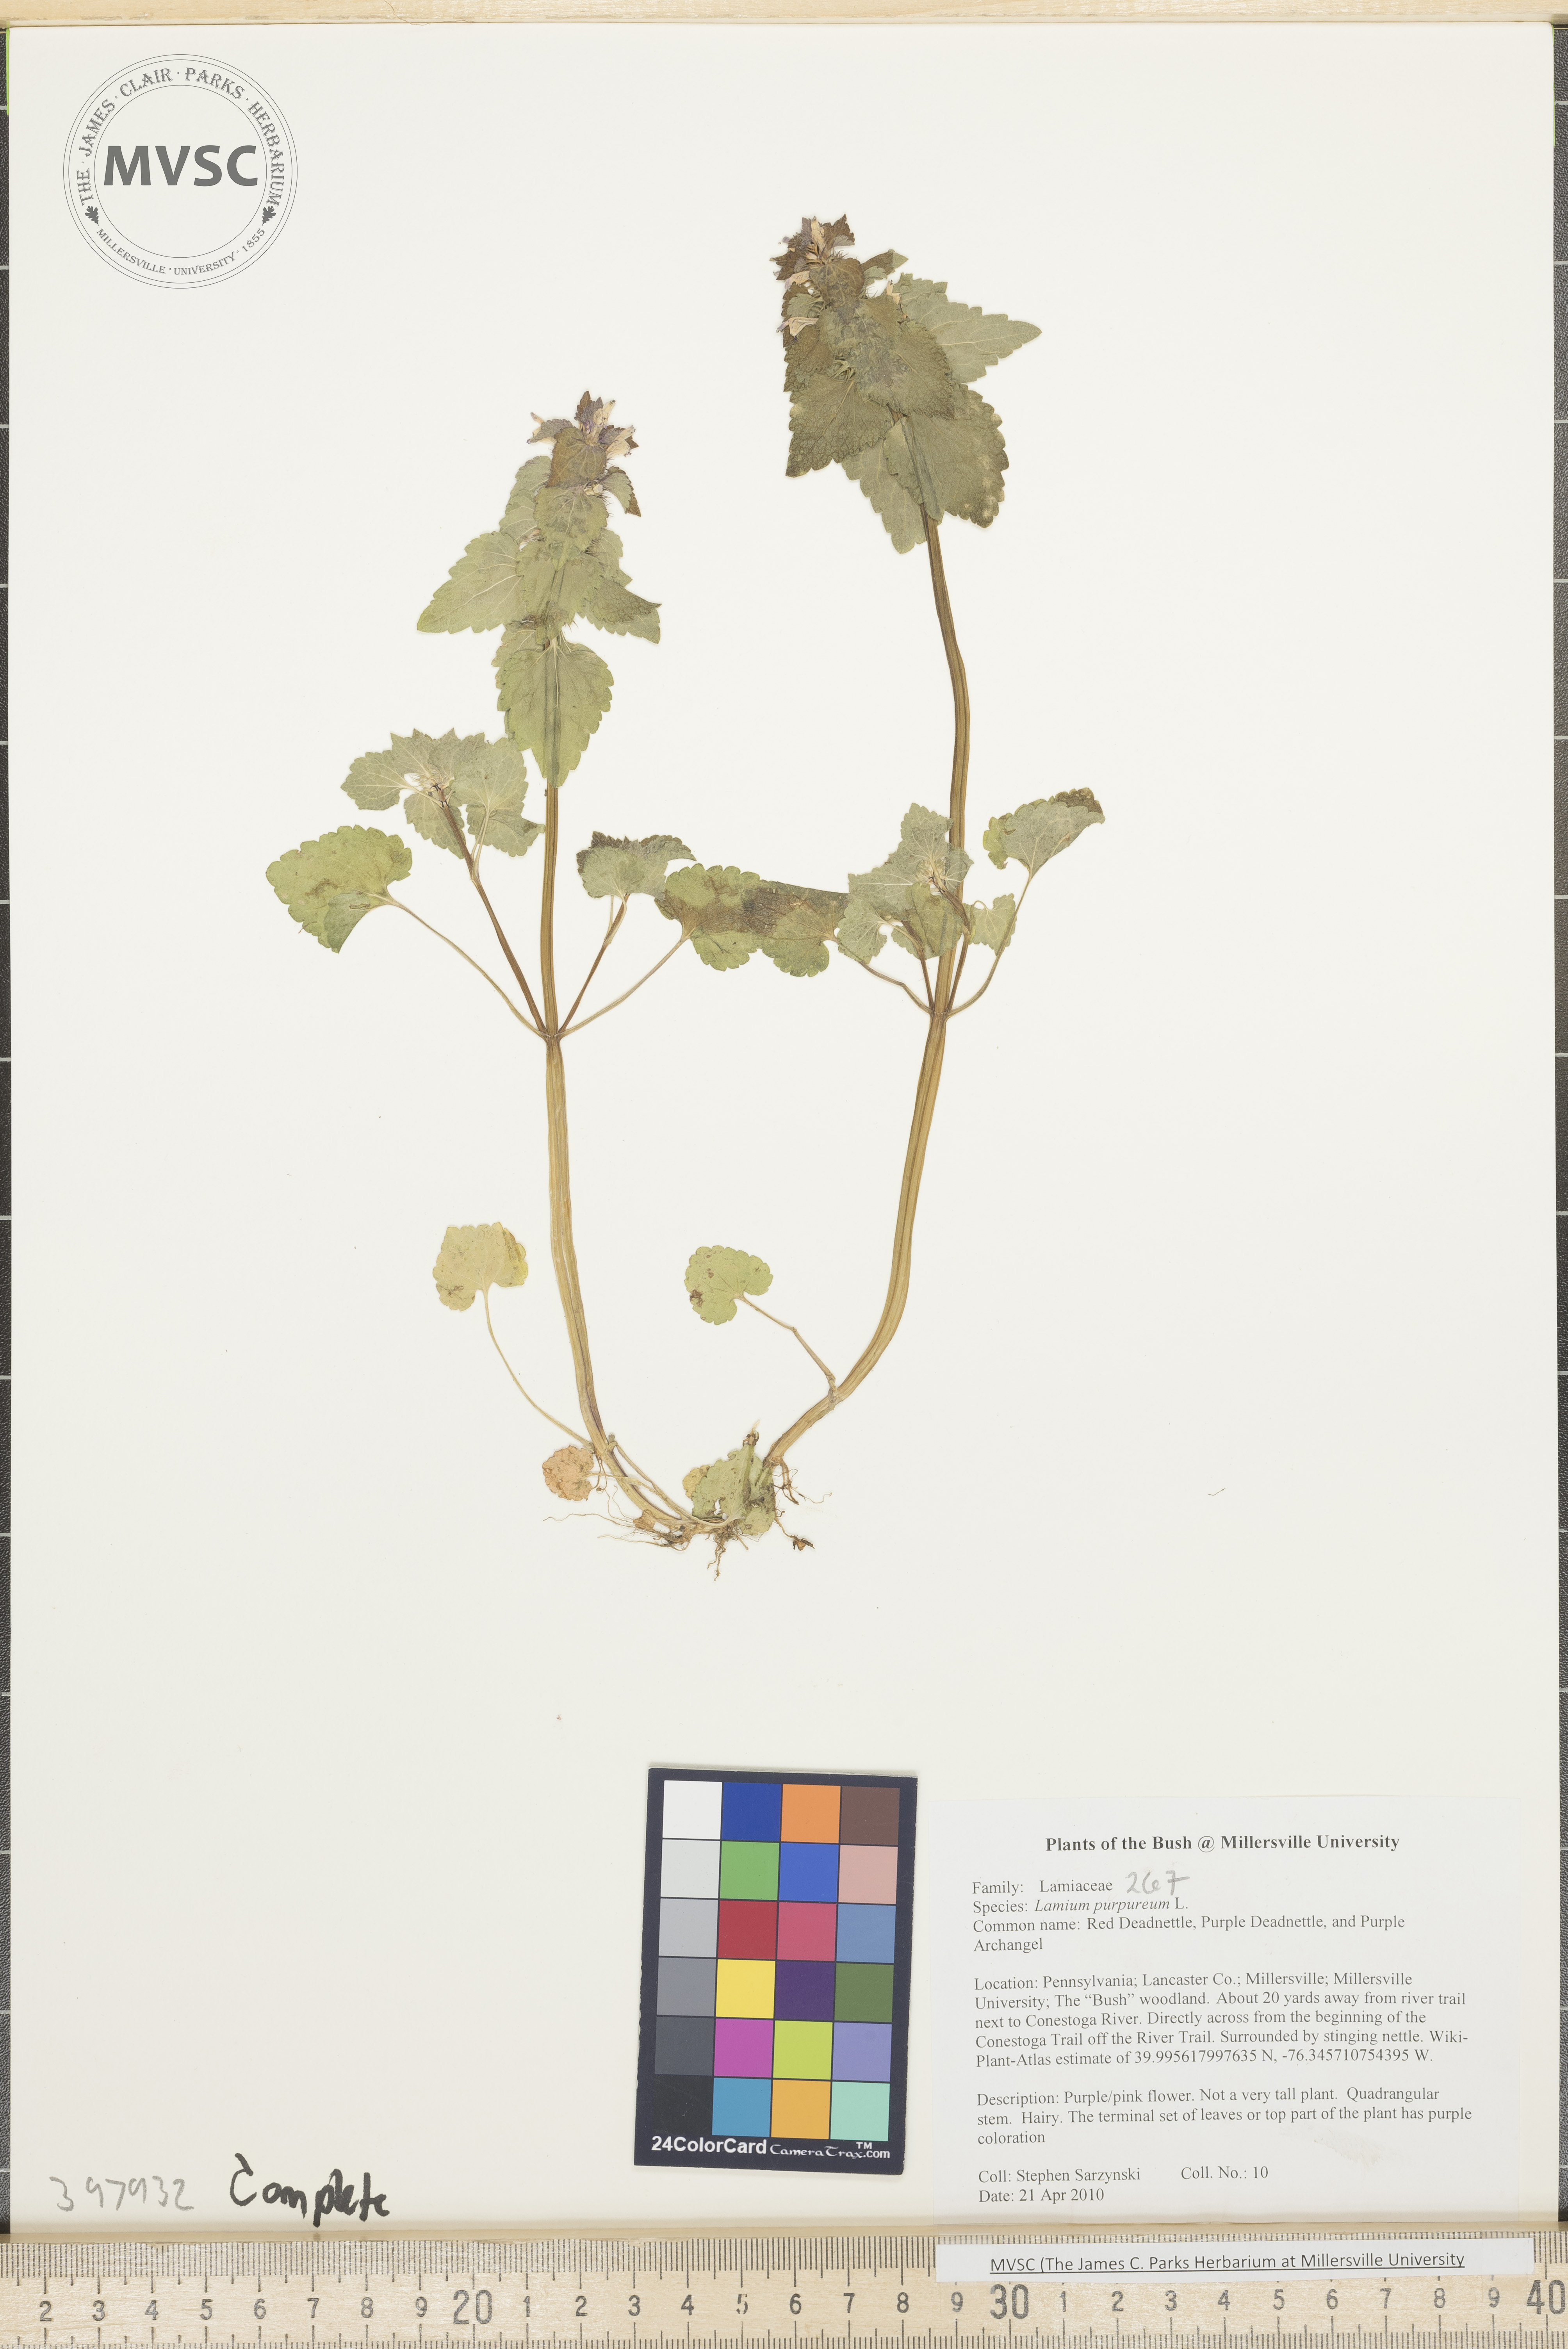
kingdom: Plantae
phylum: Tracheophyta
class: Magnoliopsida
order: Lamiales
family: Lamiaceae
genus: Lamium
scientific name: Lamium purpureum
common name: Purple dead-nettle
